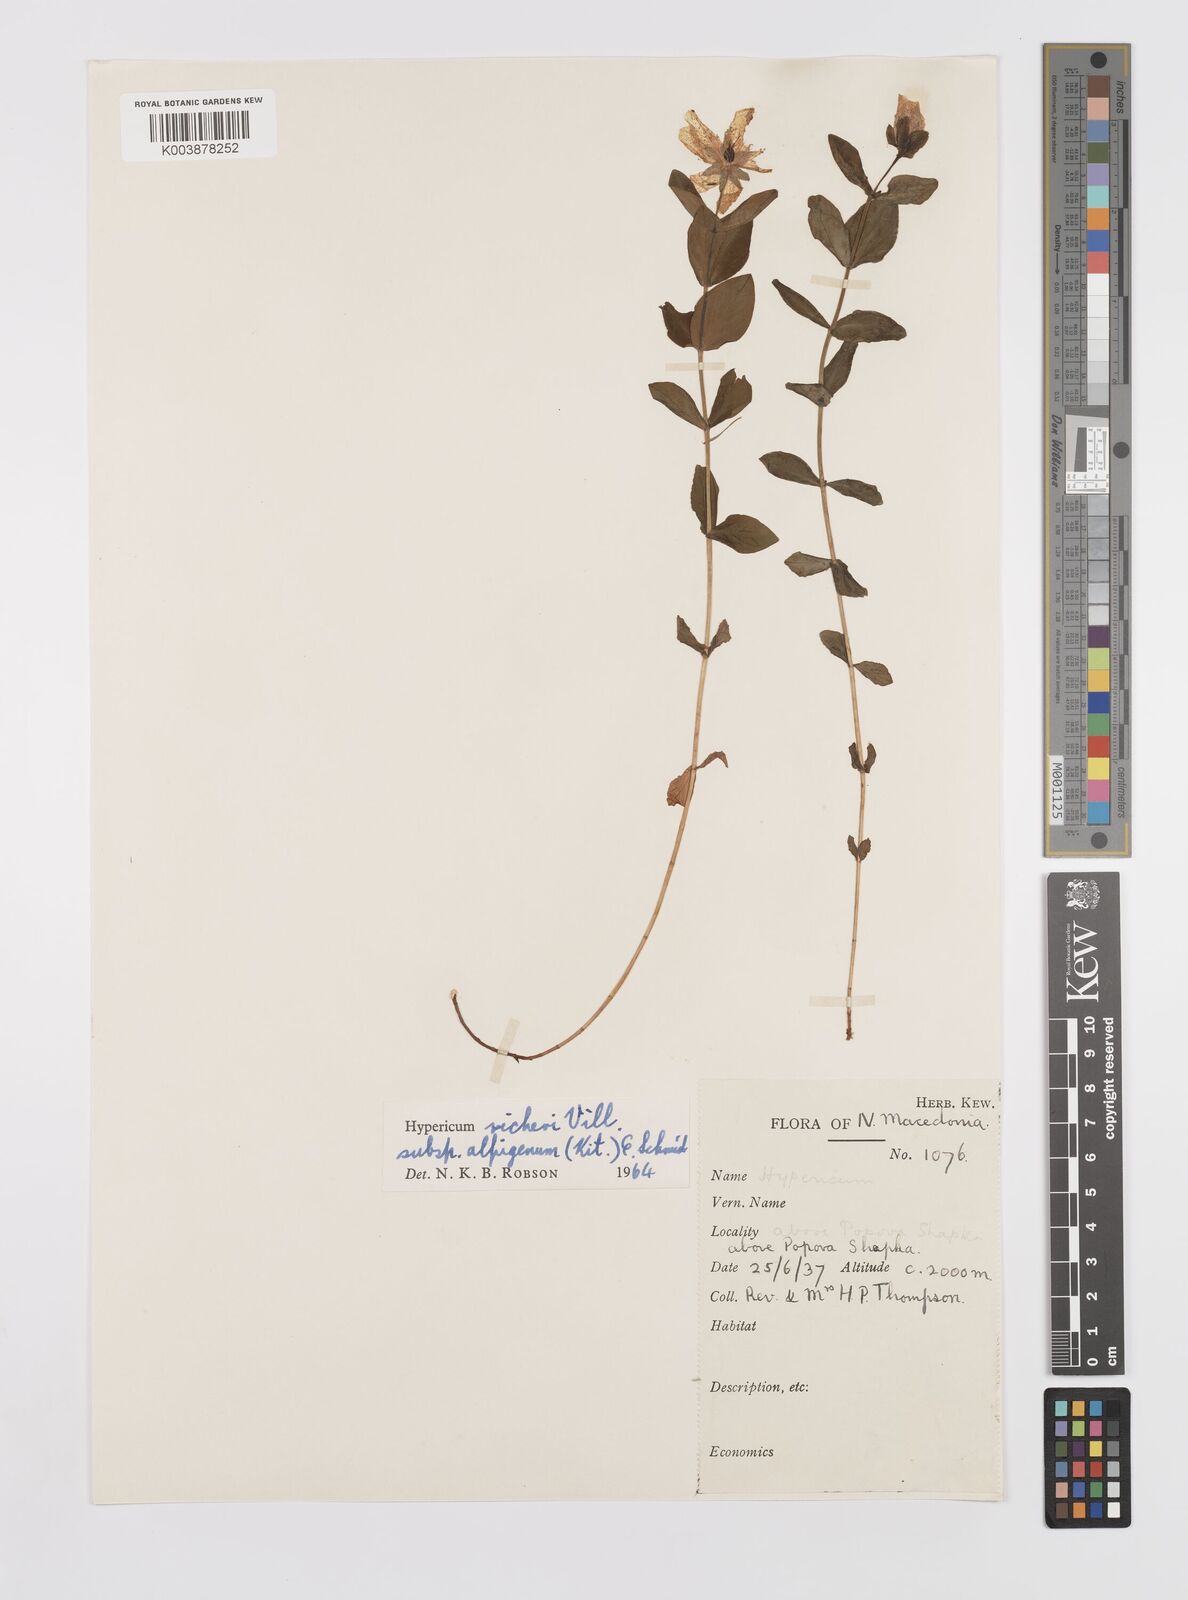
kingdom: Plantae
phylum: Tracheophyta
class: Magnoliopsida
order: Malpighiales
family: Hypericaceae
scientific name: Hypericaceae
